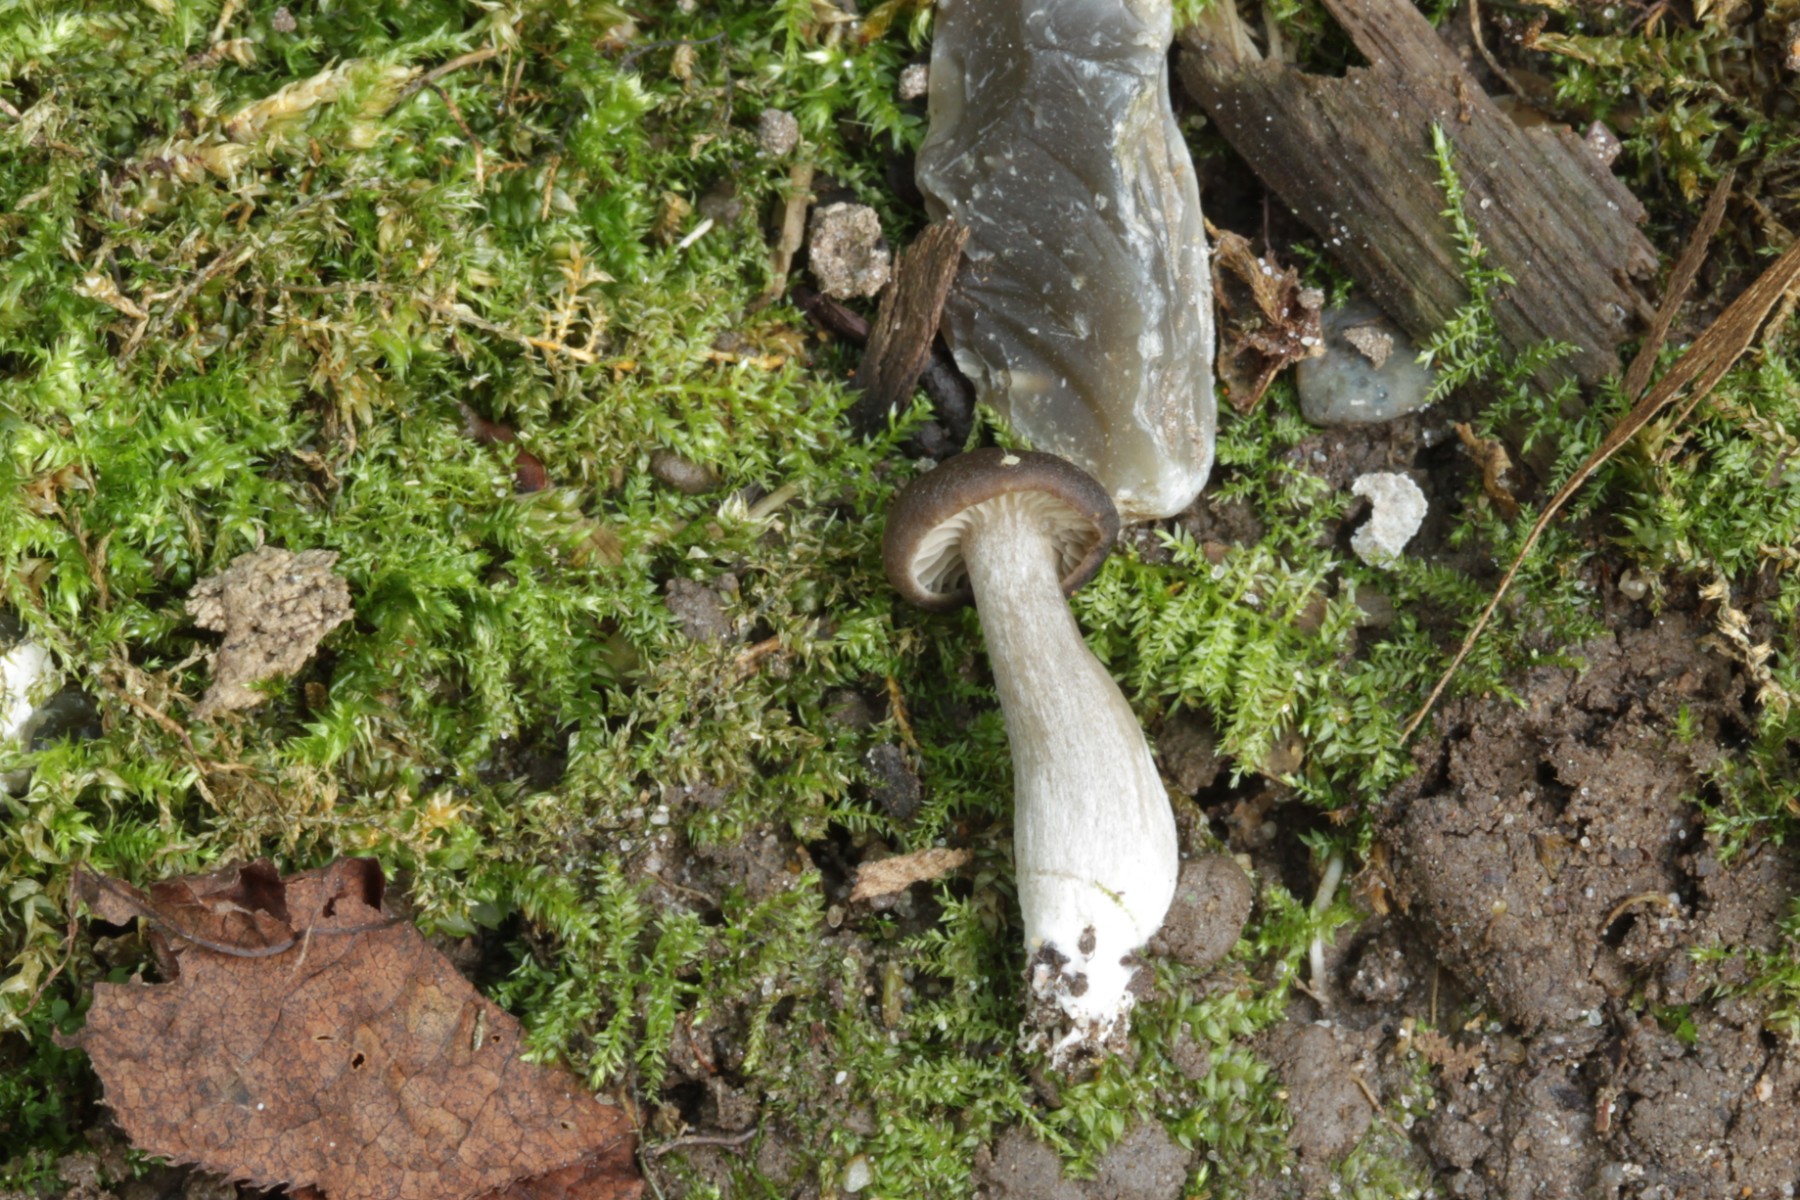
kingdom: Fungi
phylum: Basidiomycota
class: Agaricomycetes
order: Agaricales
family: Entolomataceae
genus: Entoloma
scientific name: Entoloma
